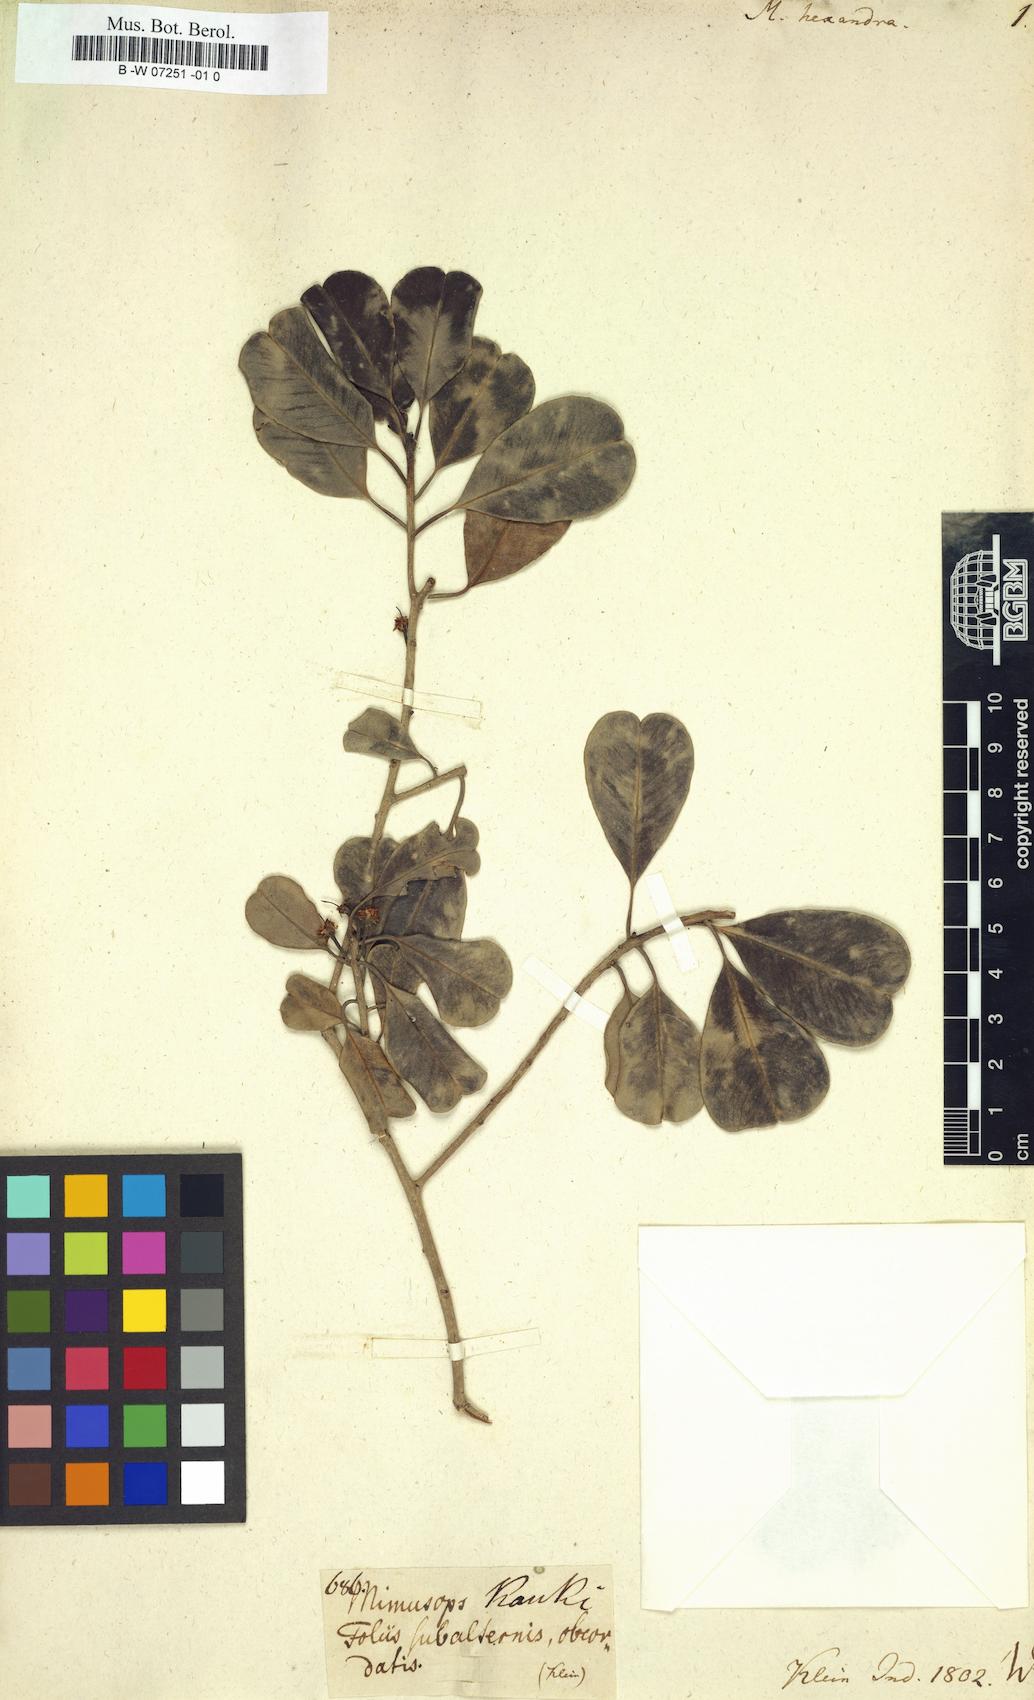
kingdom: Plantae
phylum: Tracheophyta
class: Magnoliopsida
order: Ericales
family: Sapotaceae
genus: Mimusops
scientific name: Mimusops hexandra
